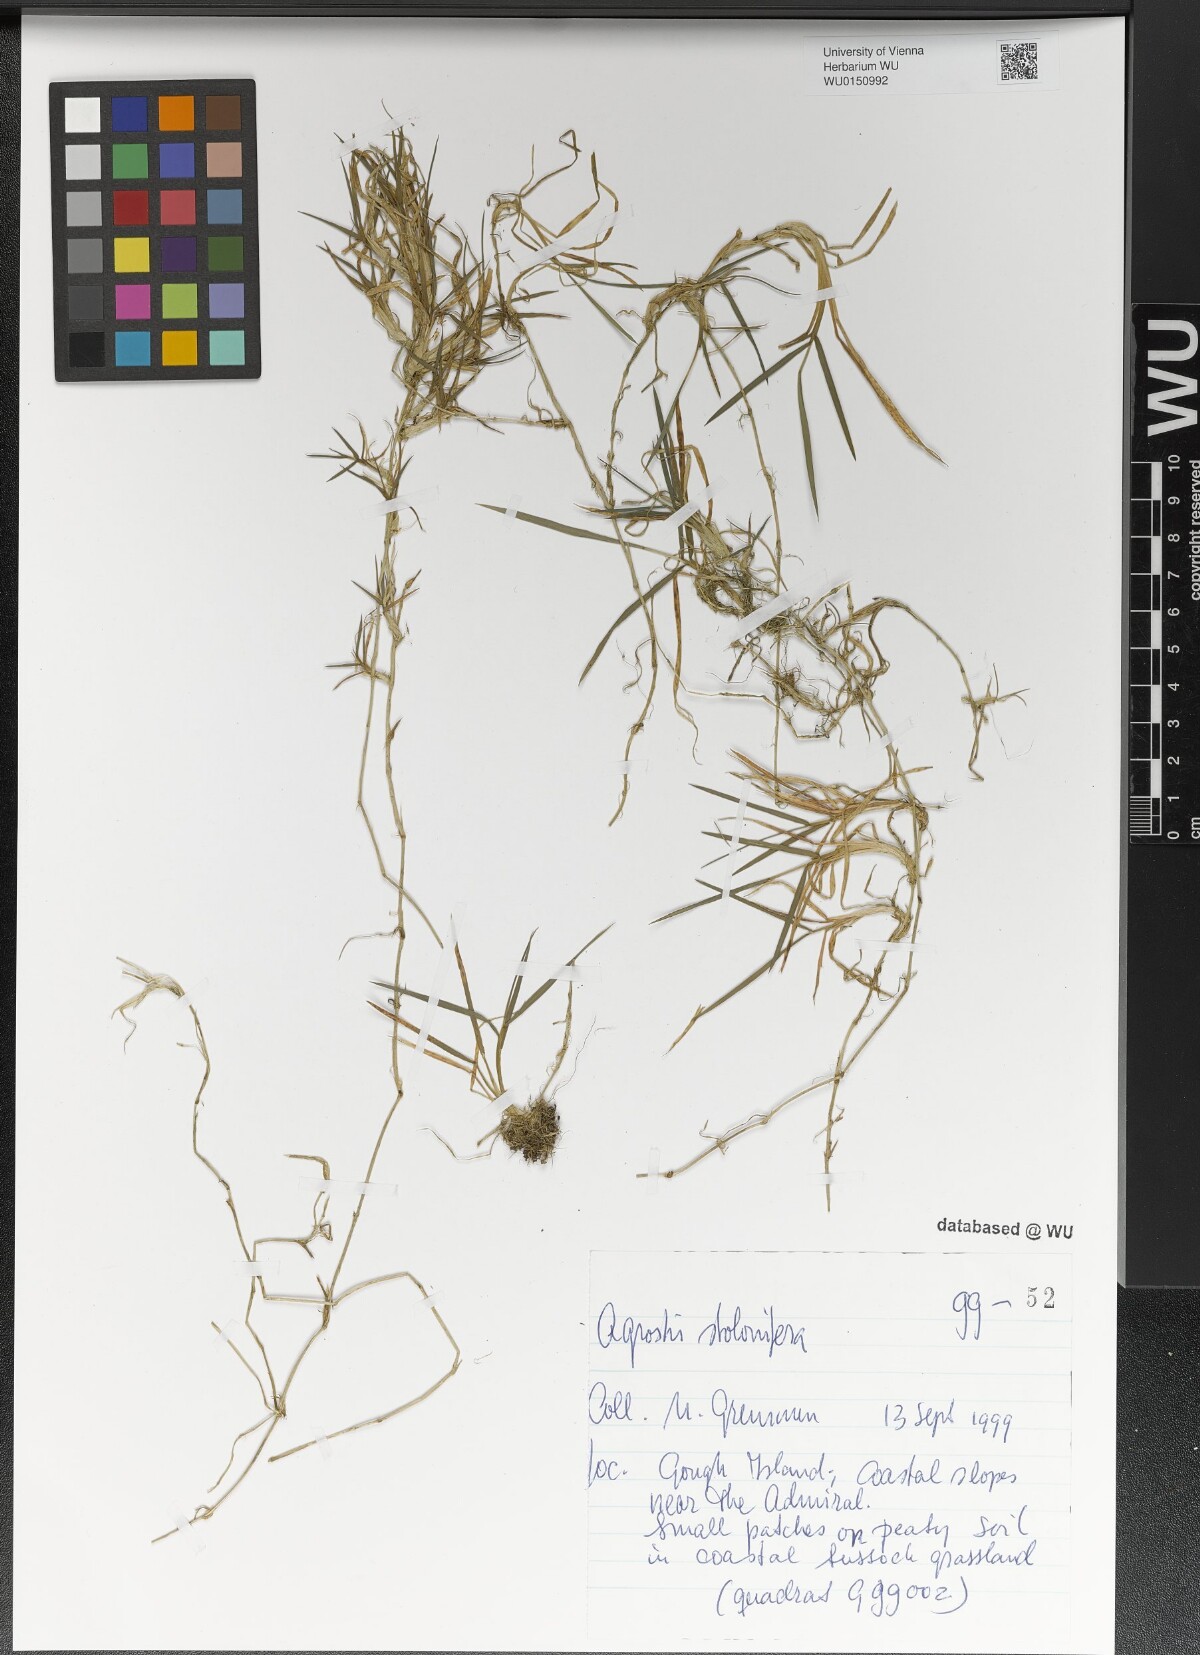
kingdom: Plantae
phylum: Tracheophyta
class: Liliopsida
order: Poales
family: Poaceae
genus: Agrostis
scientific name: Agrostis stolonifera
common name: Creeping bentgrass
